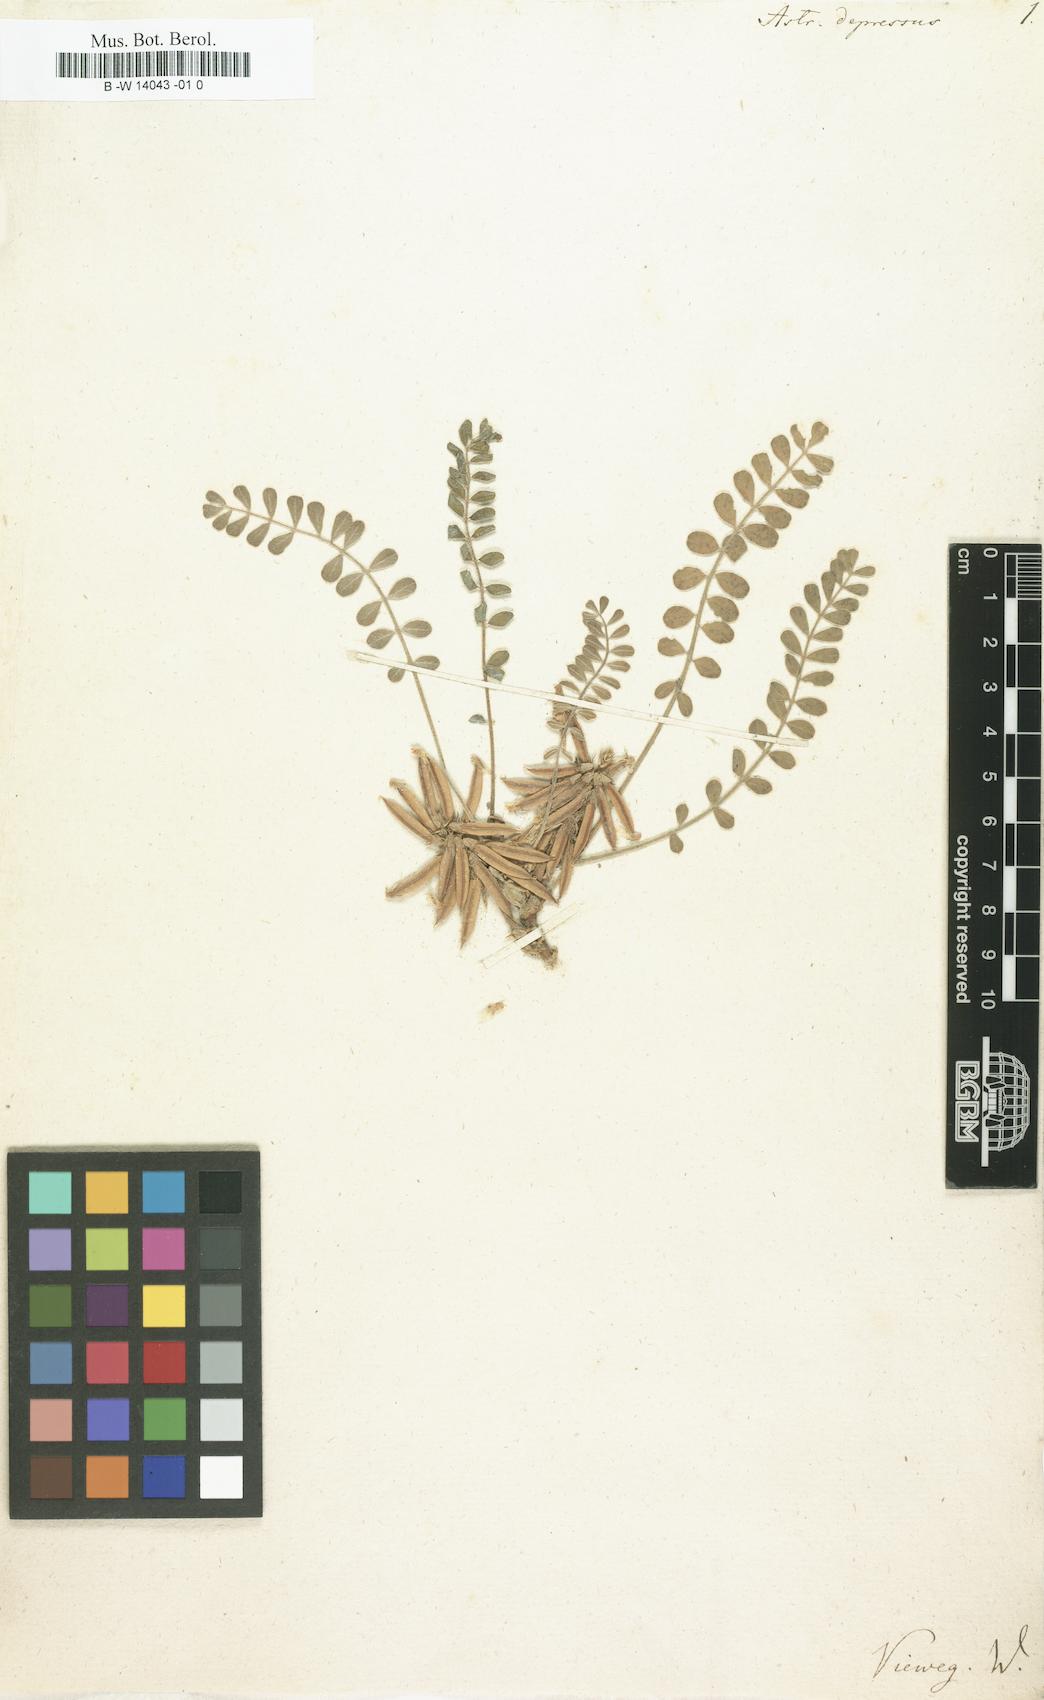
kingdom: Plantae
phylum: Tracheophyta
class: Magnoliopsida
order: Fabales
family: Fabaceae
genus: Astragalus
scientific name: Astragalus depressus
